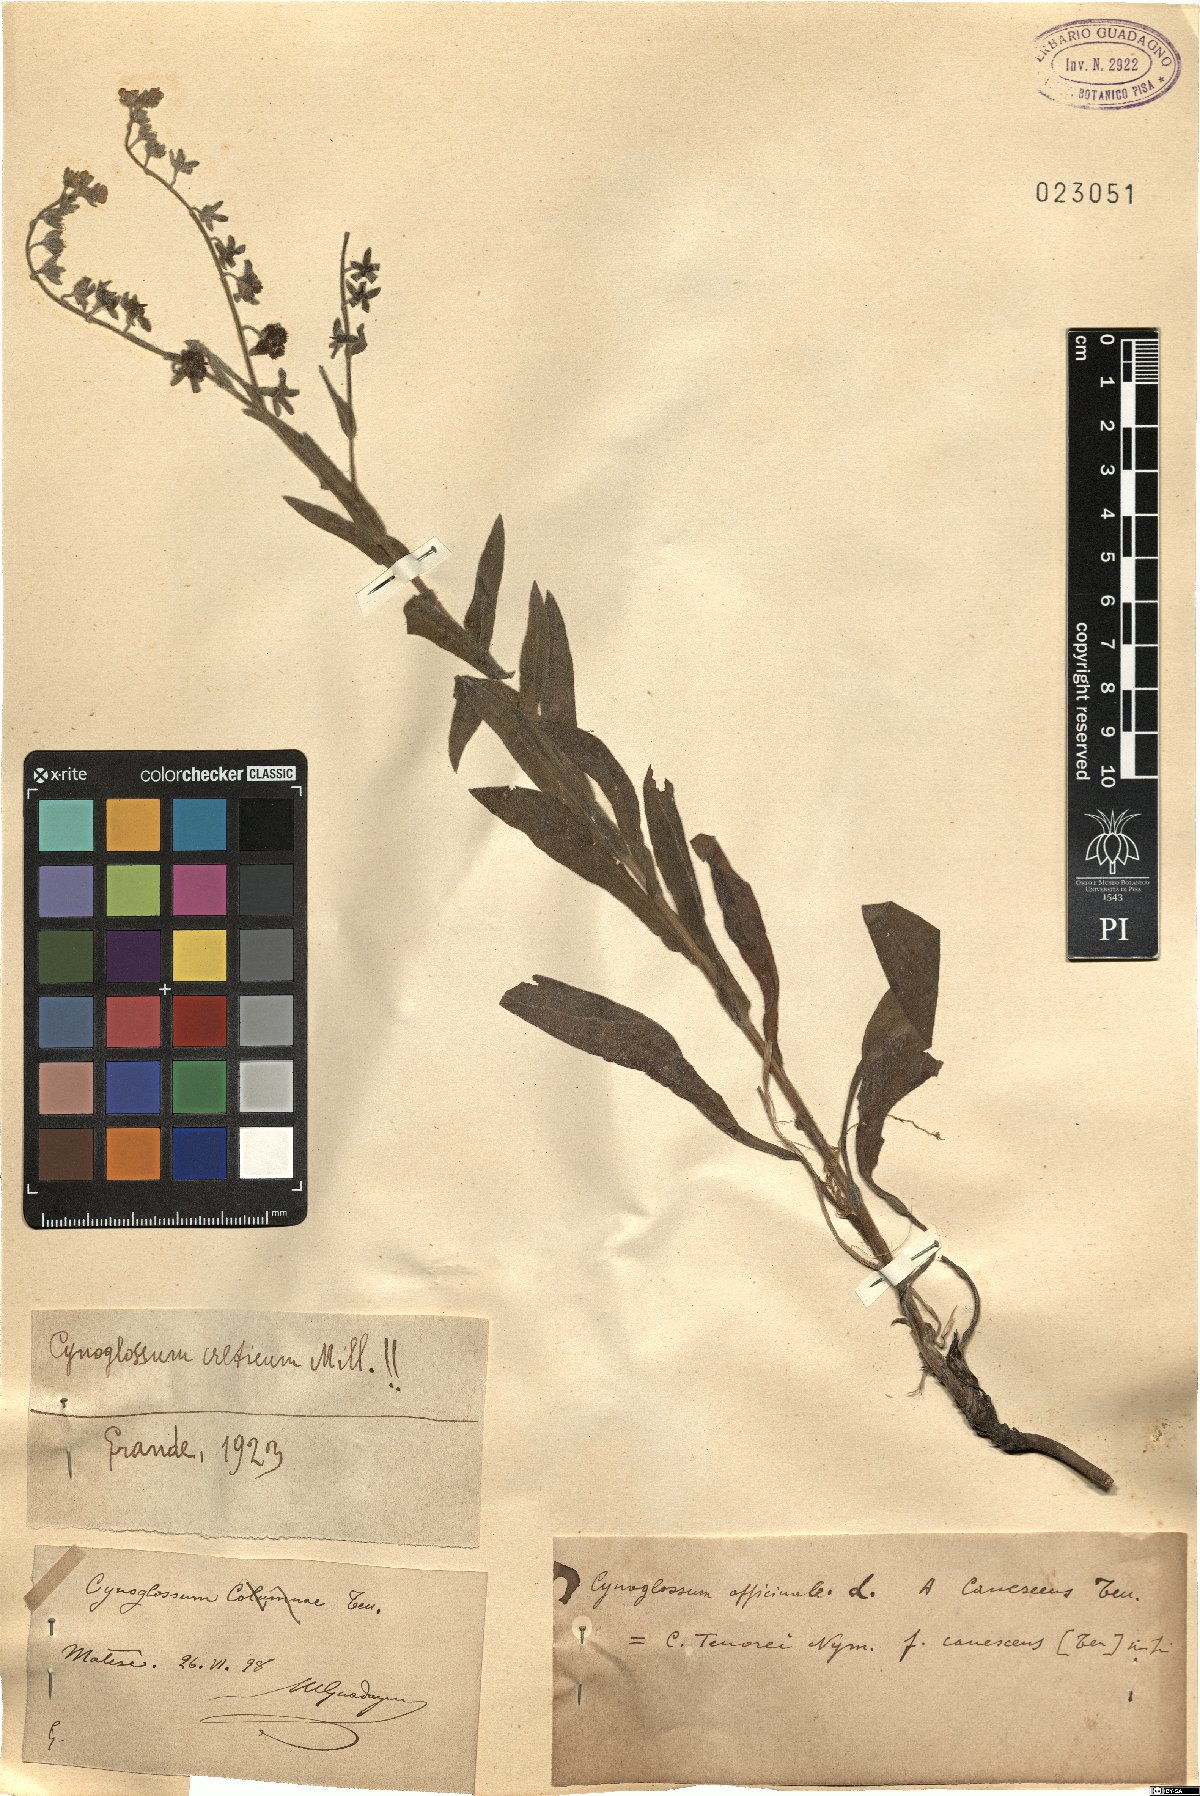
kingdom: Plantae
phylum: Tracheophyta
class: Magnoliopsida
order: Boraginales
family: Boraginaceae
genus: Cynoglossum
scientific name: Cynoglossum creticum
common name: Blue hound's tongue
